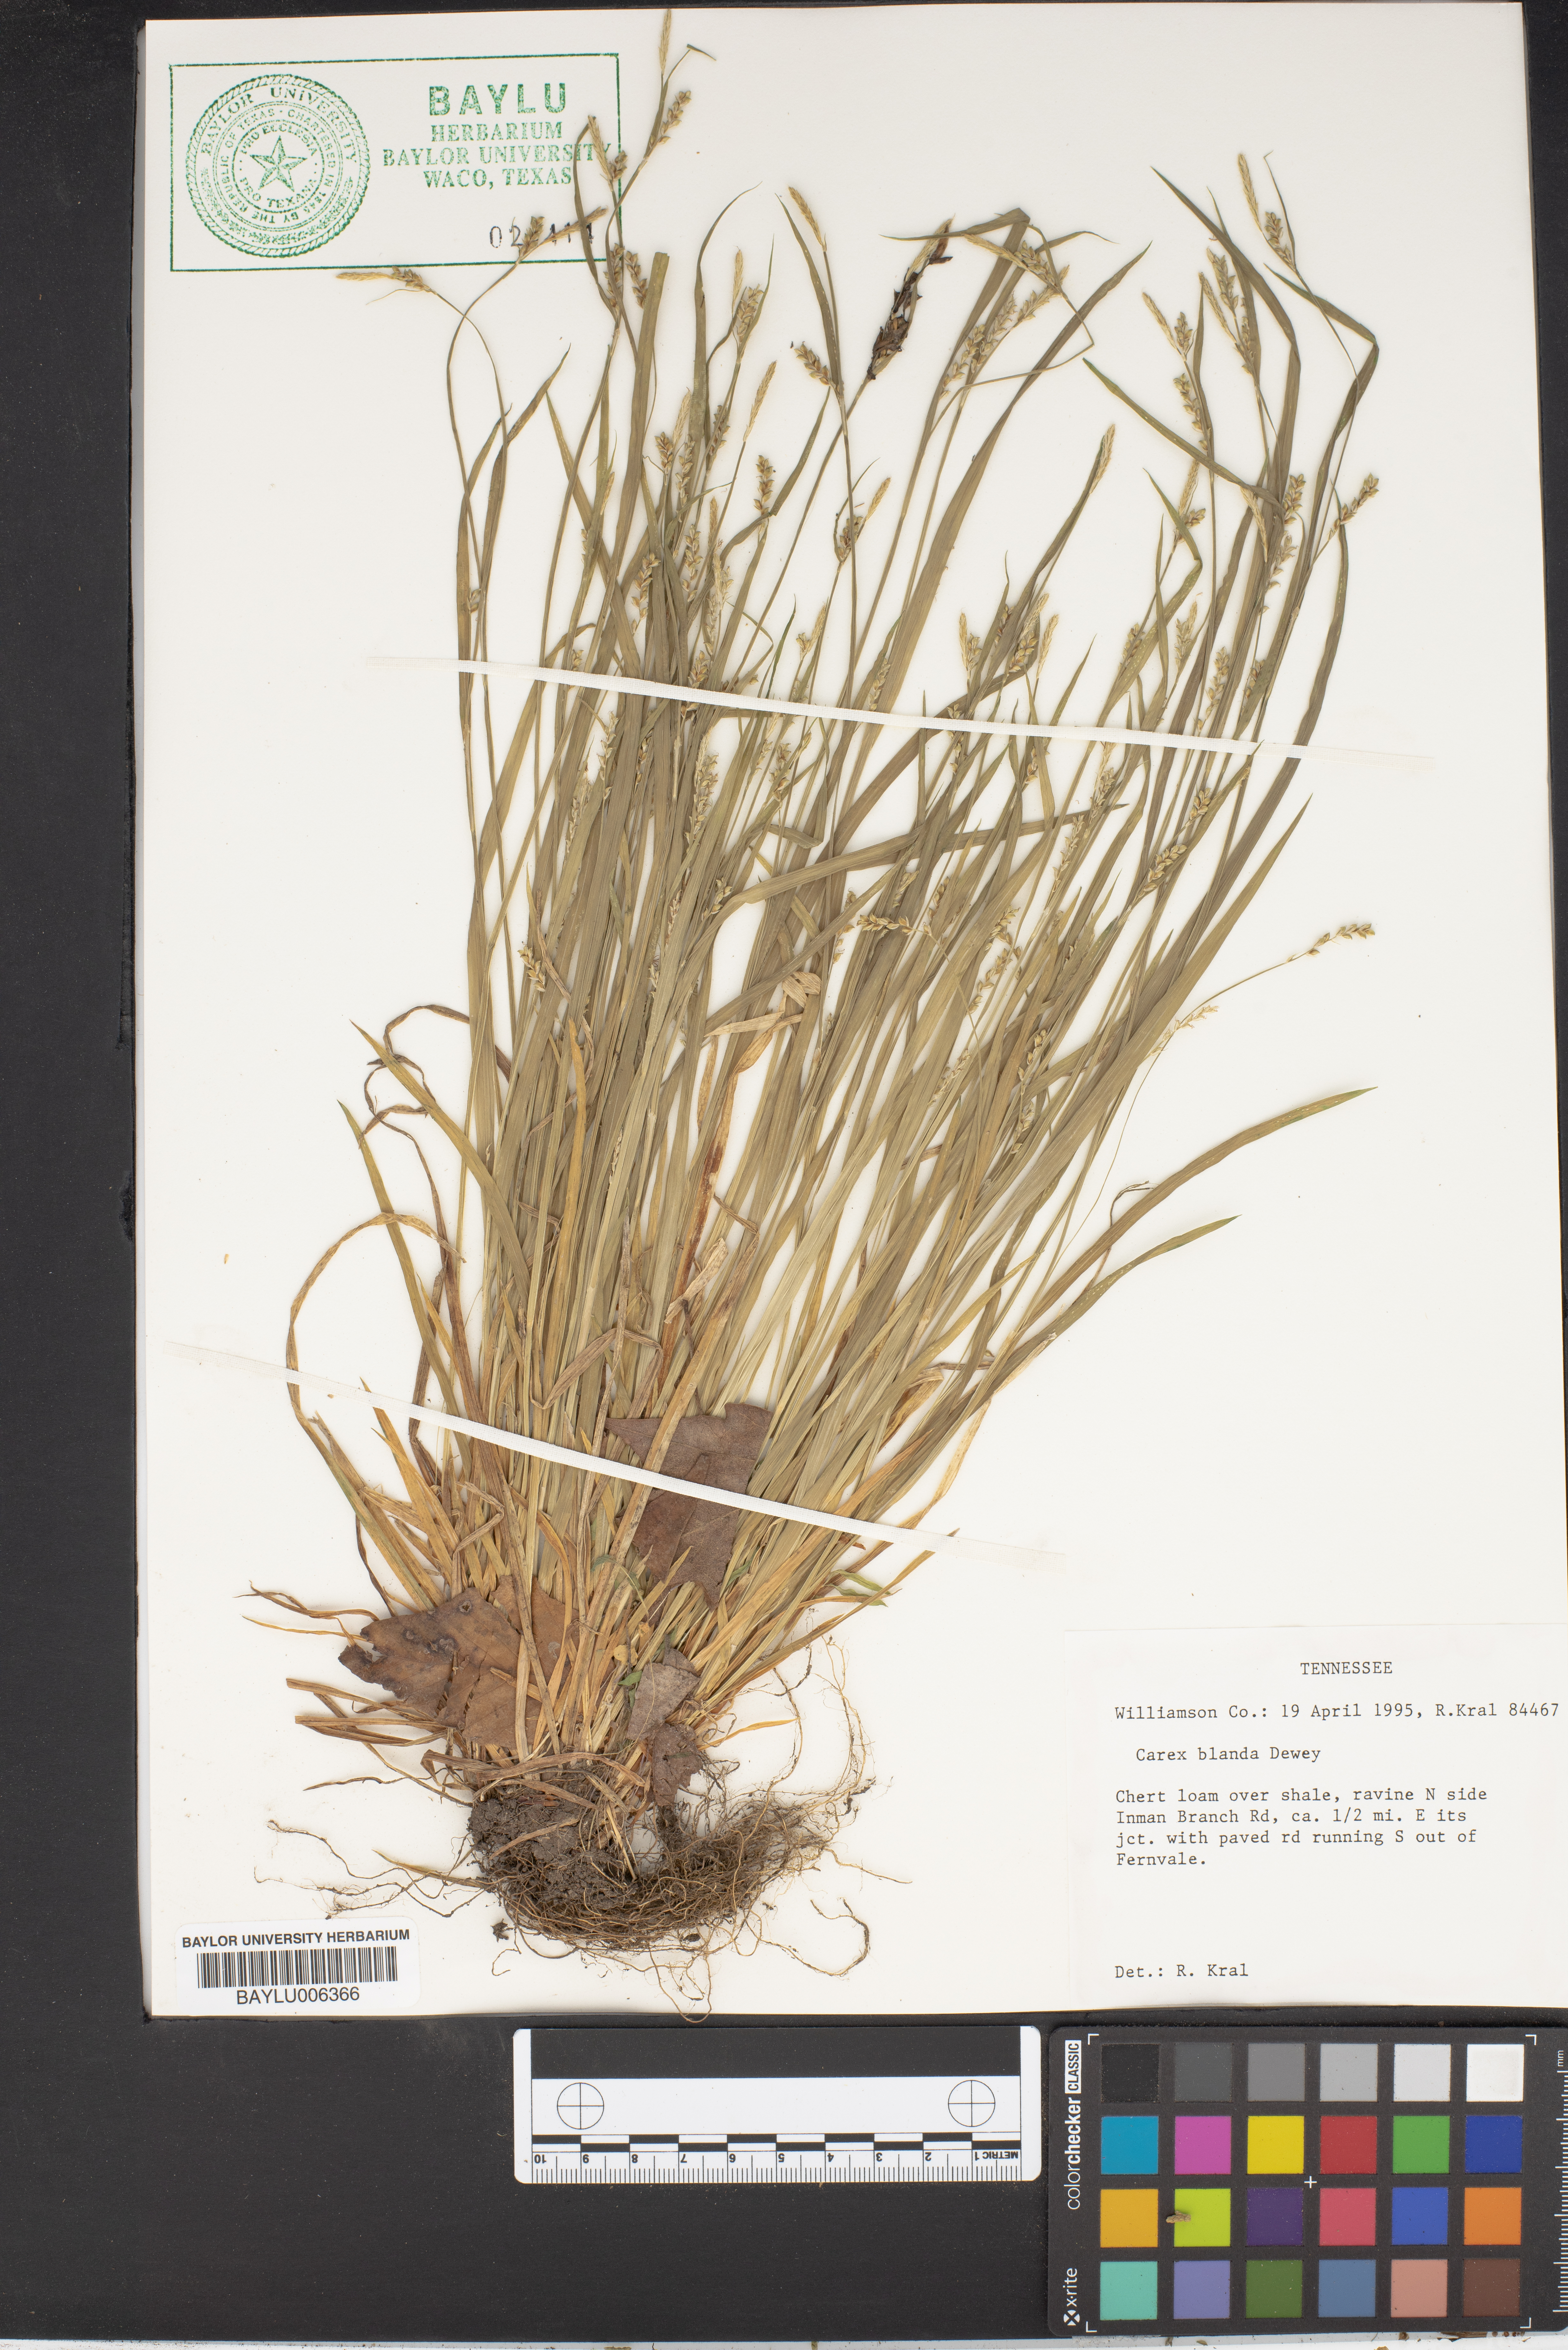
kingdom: Plantae
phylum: Tracheophyta
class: Liliopsida
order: Poales
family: Cyperaceae
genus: Carex
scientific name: Carex blanda
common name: Bland sedge
